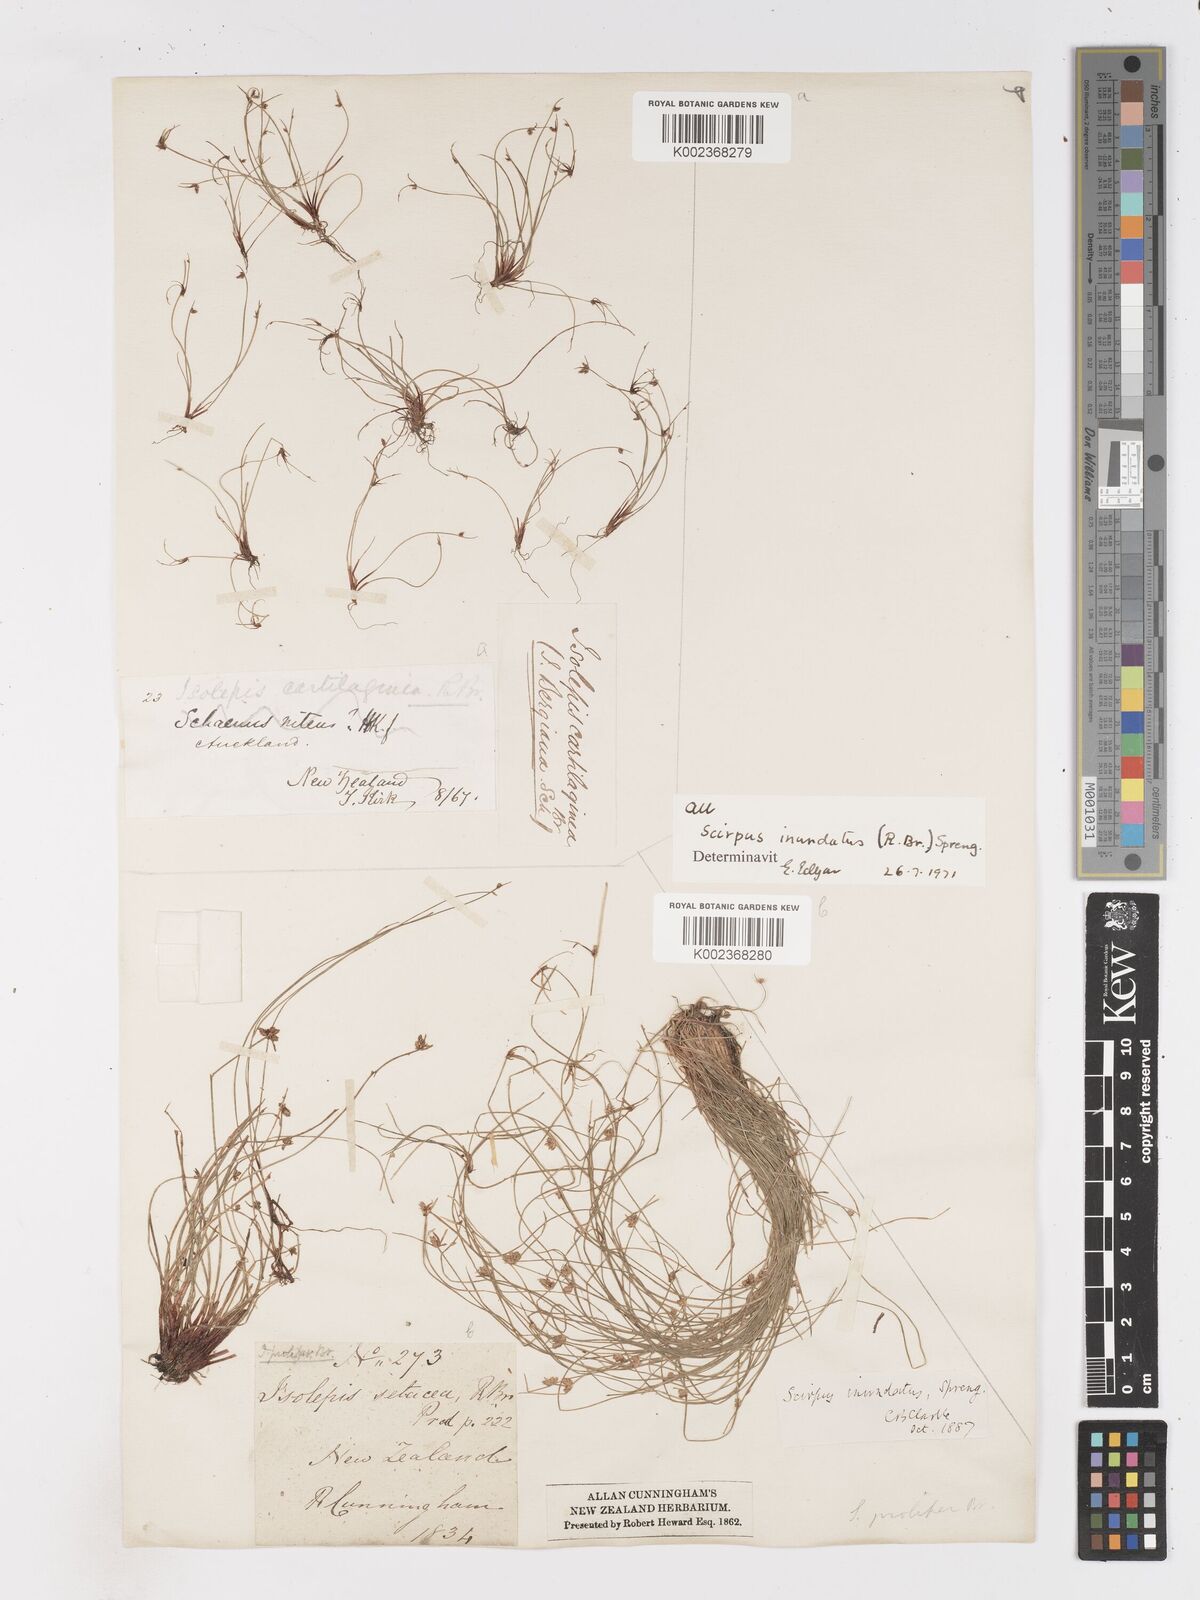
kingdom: Plantae
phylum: Tracheophyta
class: Liliopsida
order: Poales
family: Cyperaceae
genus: Isolepis
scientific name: Isolepis inundata
